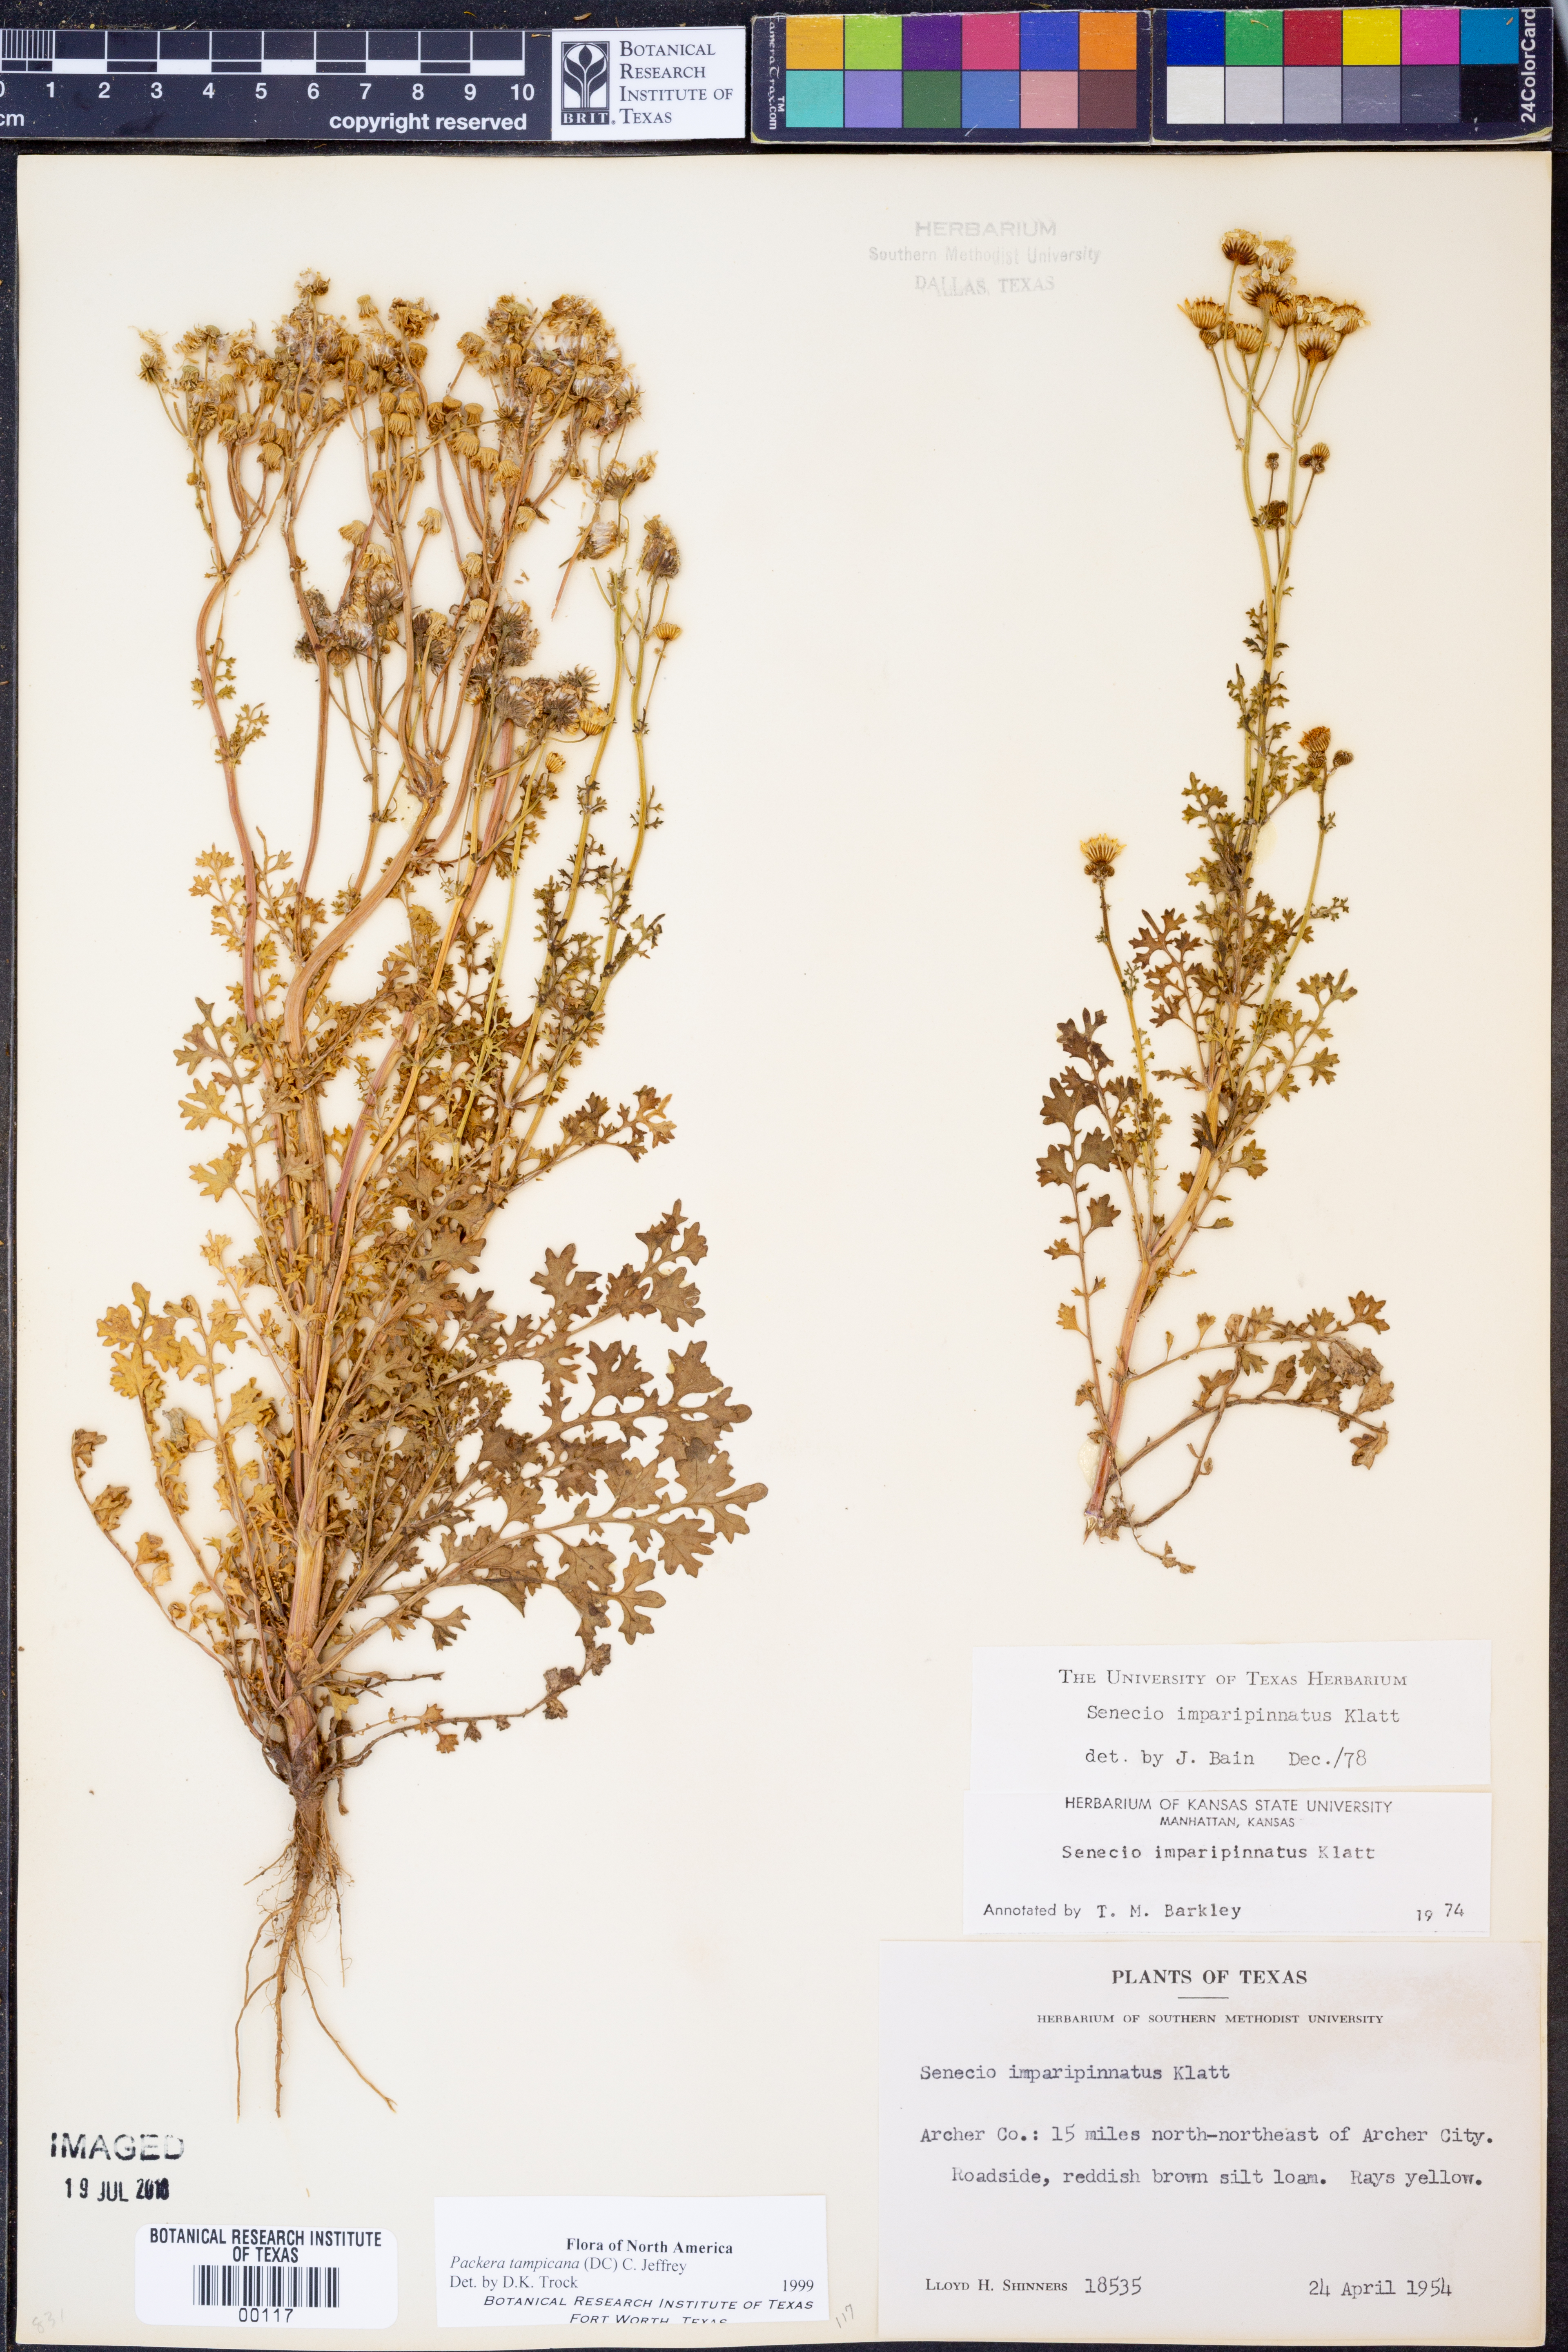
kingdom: Plantae
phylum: Tracheophyta
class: Magnoliopsida
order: Asterales
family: Asteraceae
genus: Packera
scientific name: Packera tampicana
